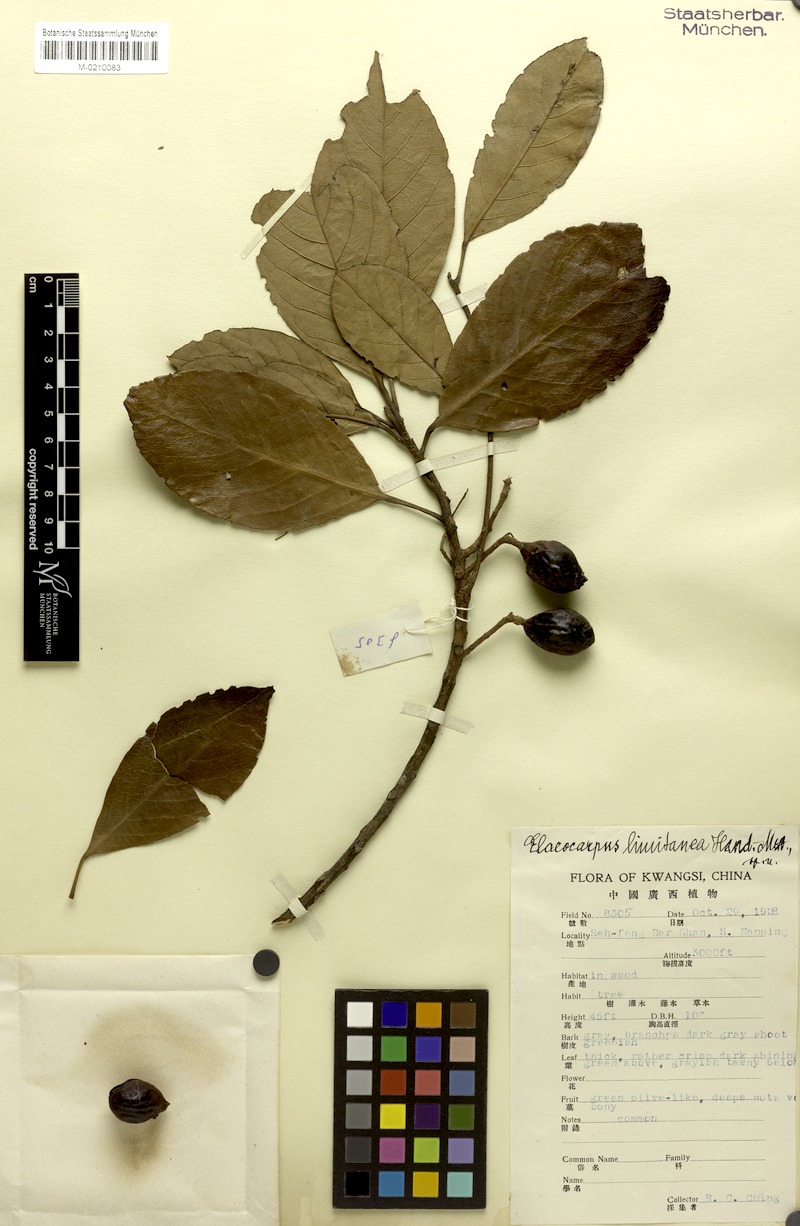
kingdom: Plantae
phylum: Tracheophyta
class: Magnoliopsida
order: Oxalidales
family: Elaeocarpaceae
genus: Elaeocarpus
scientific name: Elaeocarpus limitaneus
